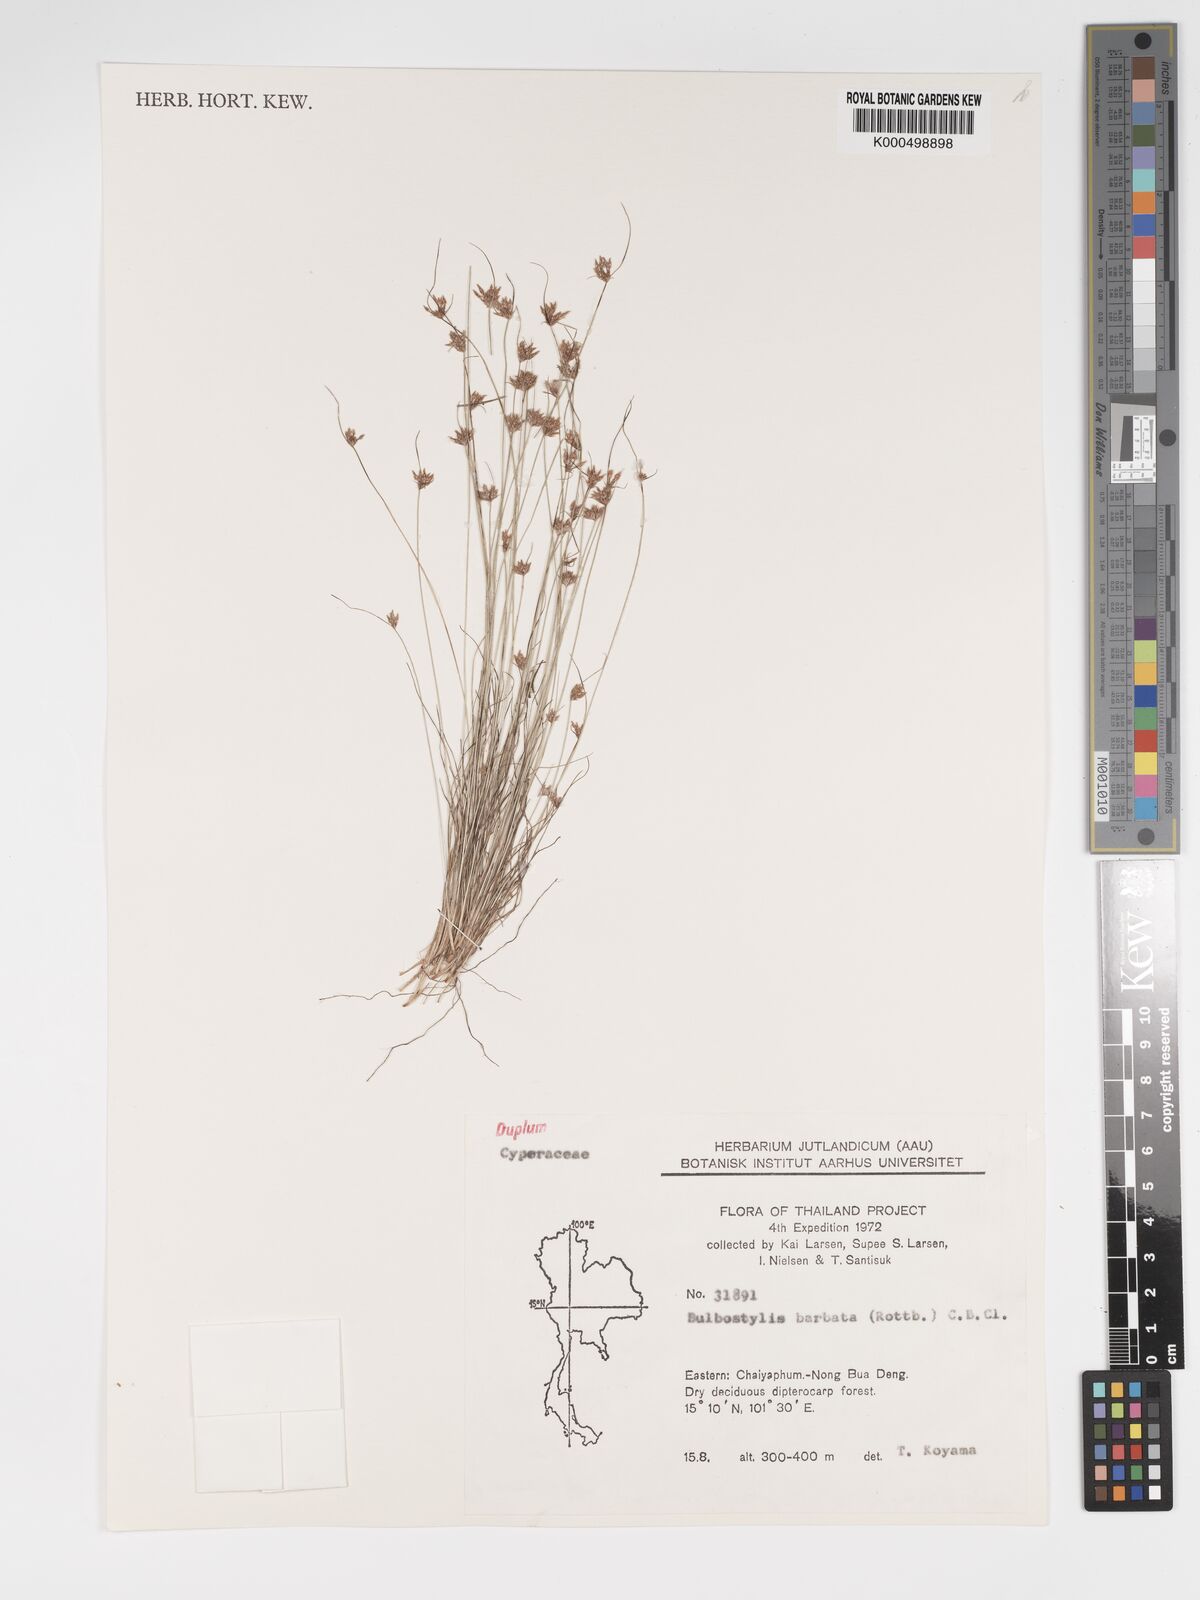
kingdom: Plantae
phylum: Tracheophyta
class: Liliopsida
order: Poales
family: Cyperaceae
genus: Bulbostylis
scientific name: Bulbostylis barbata
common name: Watergrass
